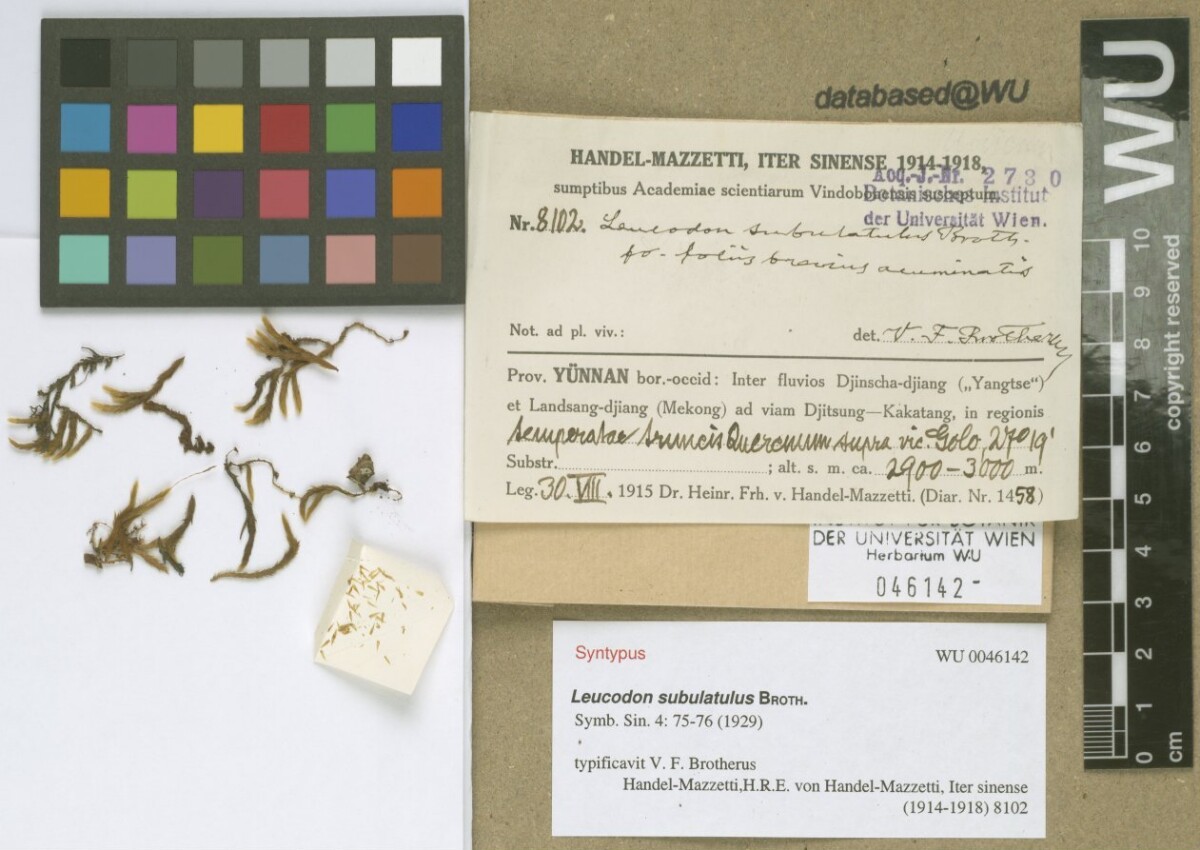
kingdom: Plantae
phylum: Bryophyta
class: Bryopsida
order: Hypnales
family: Leucodontaceae
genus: Leucodon
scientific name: Leucodon secundus
